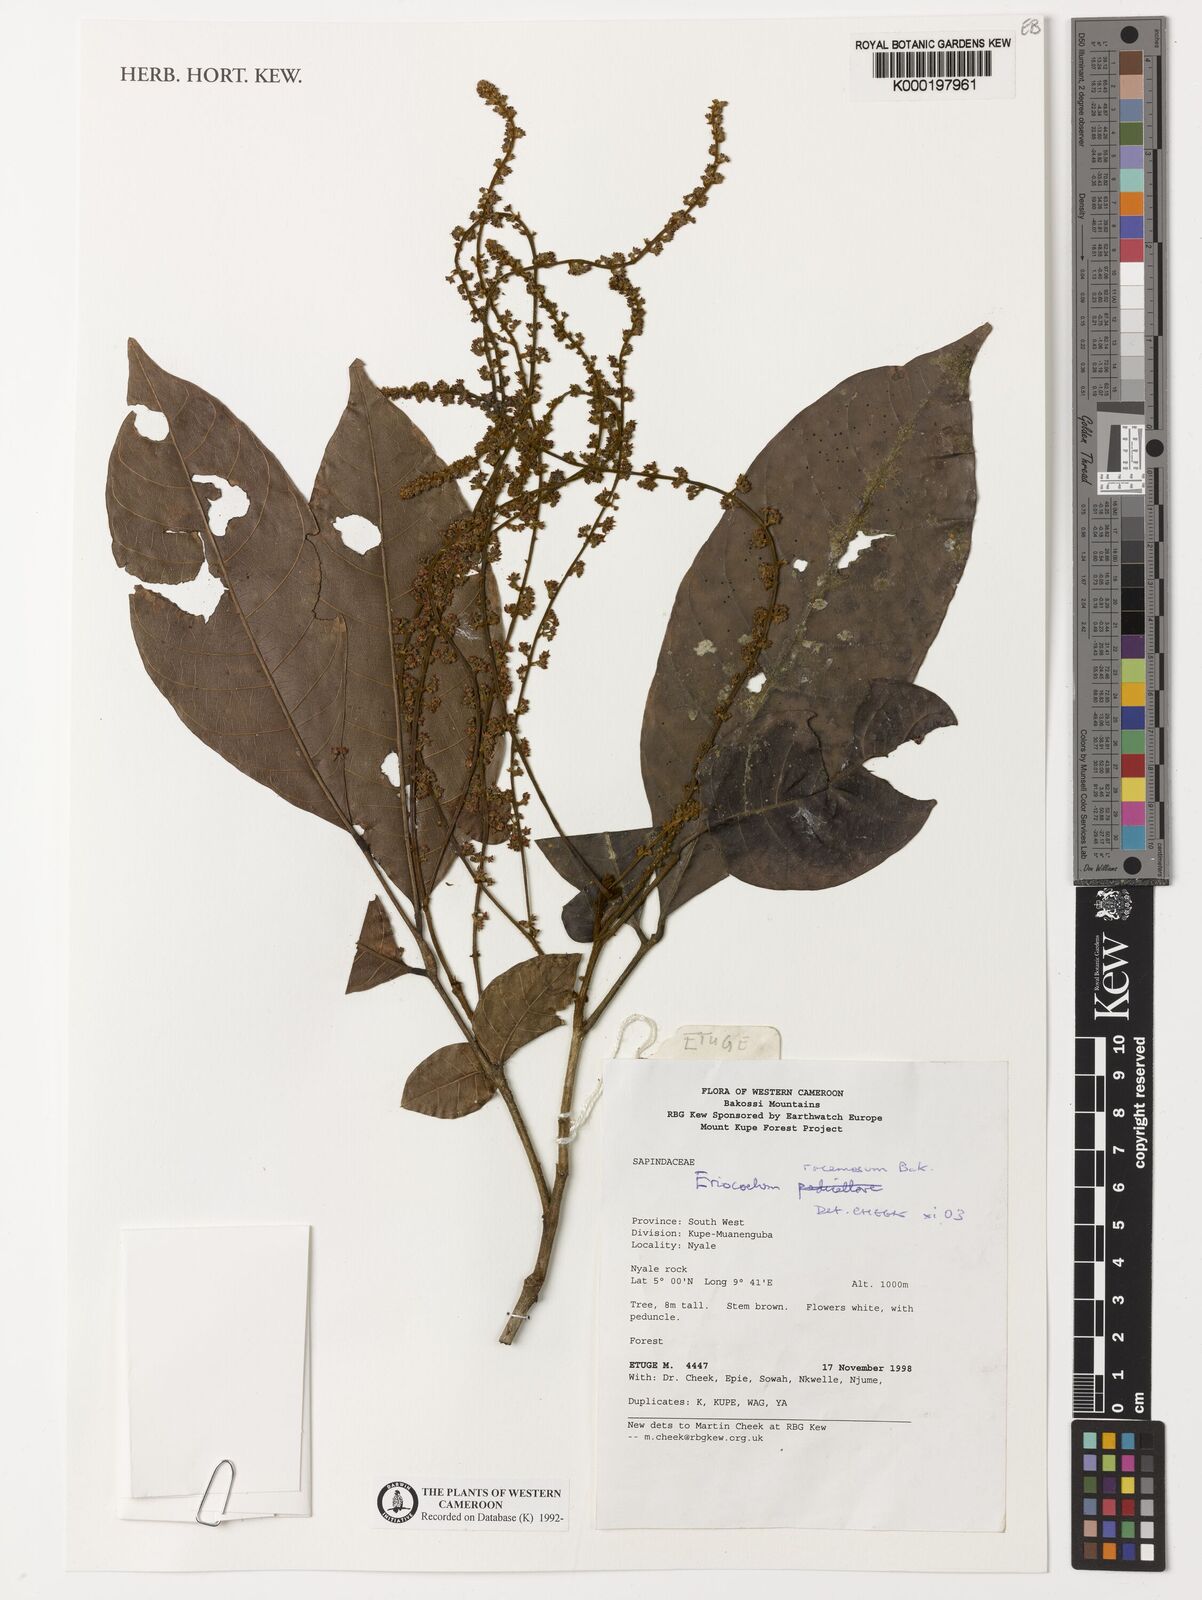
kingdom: Plantae
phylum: Tracheophyta
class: Magnoliopsida
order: Sapindales
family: Sapindaceae
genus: Eriocoelum
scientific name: Eriocoelum racemosum
